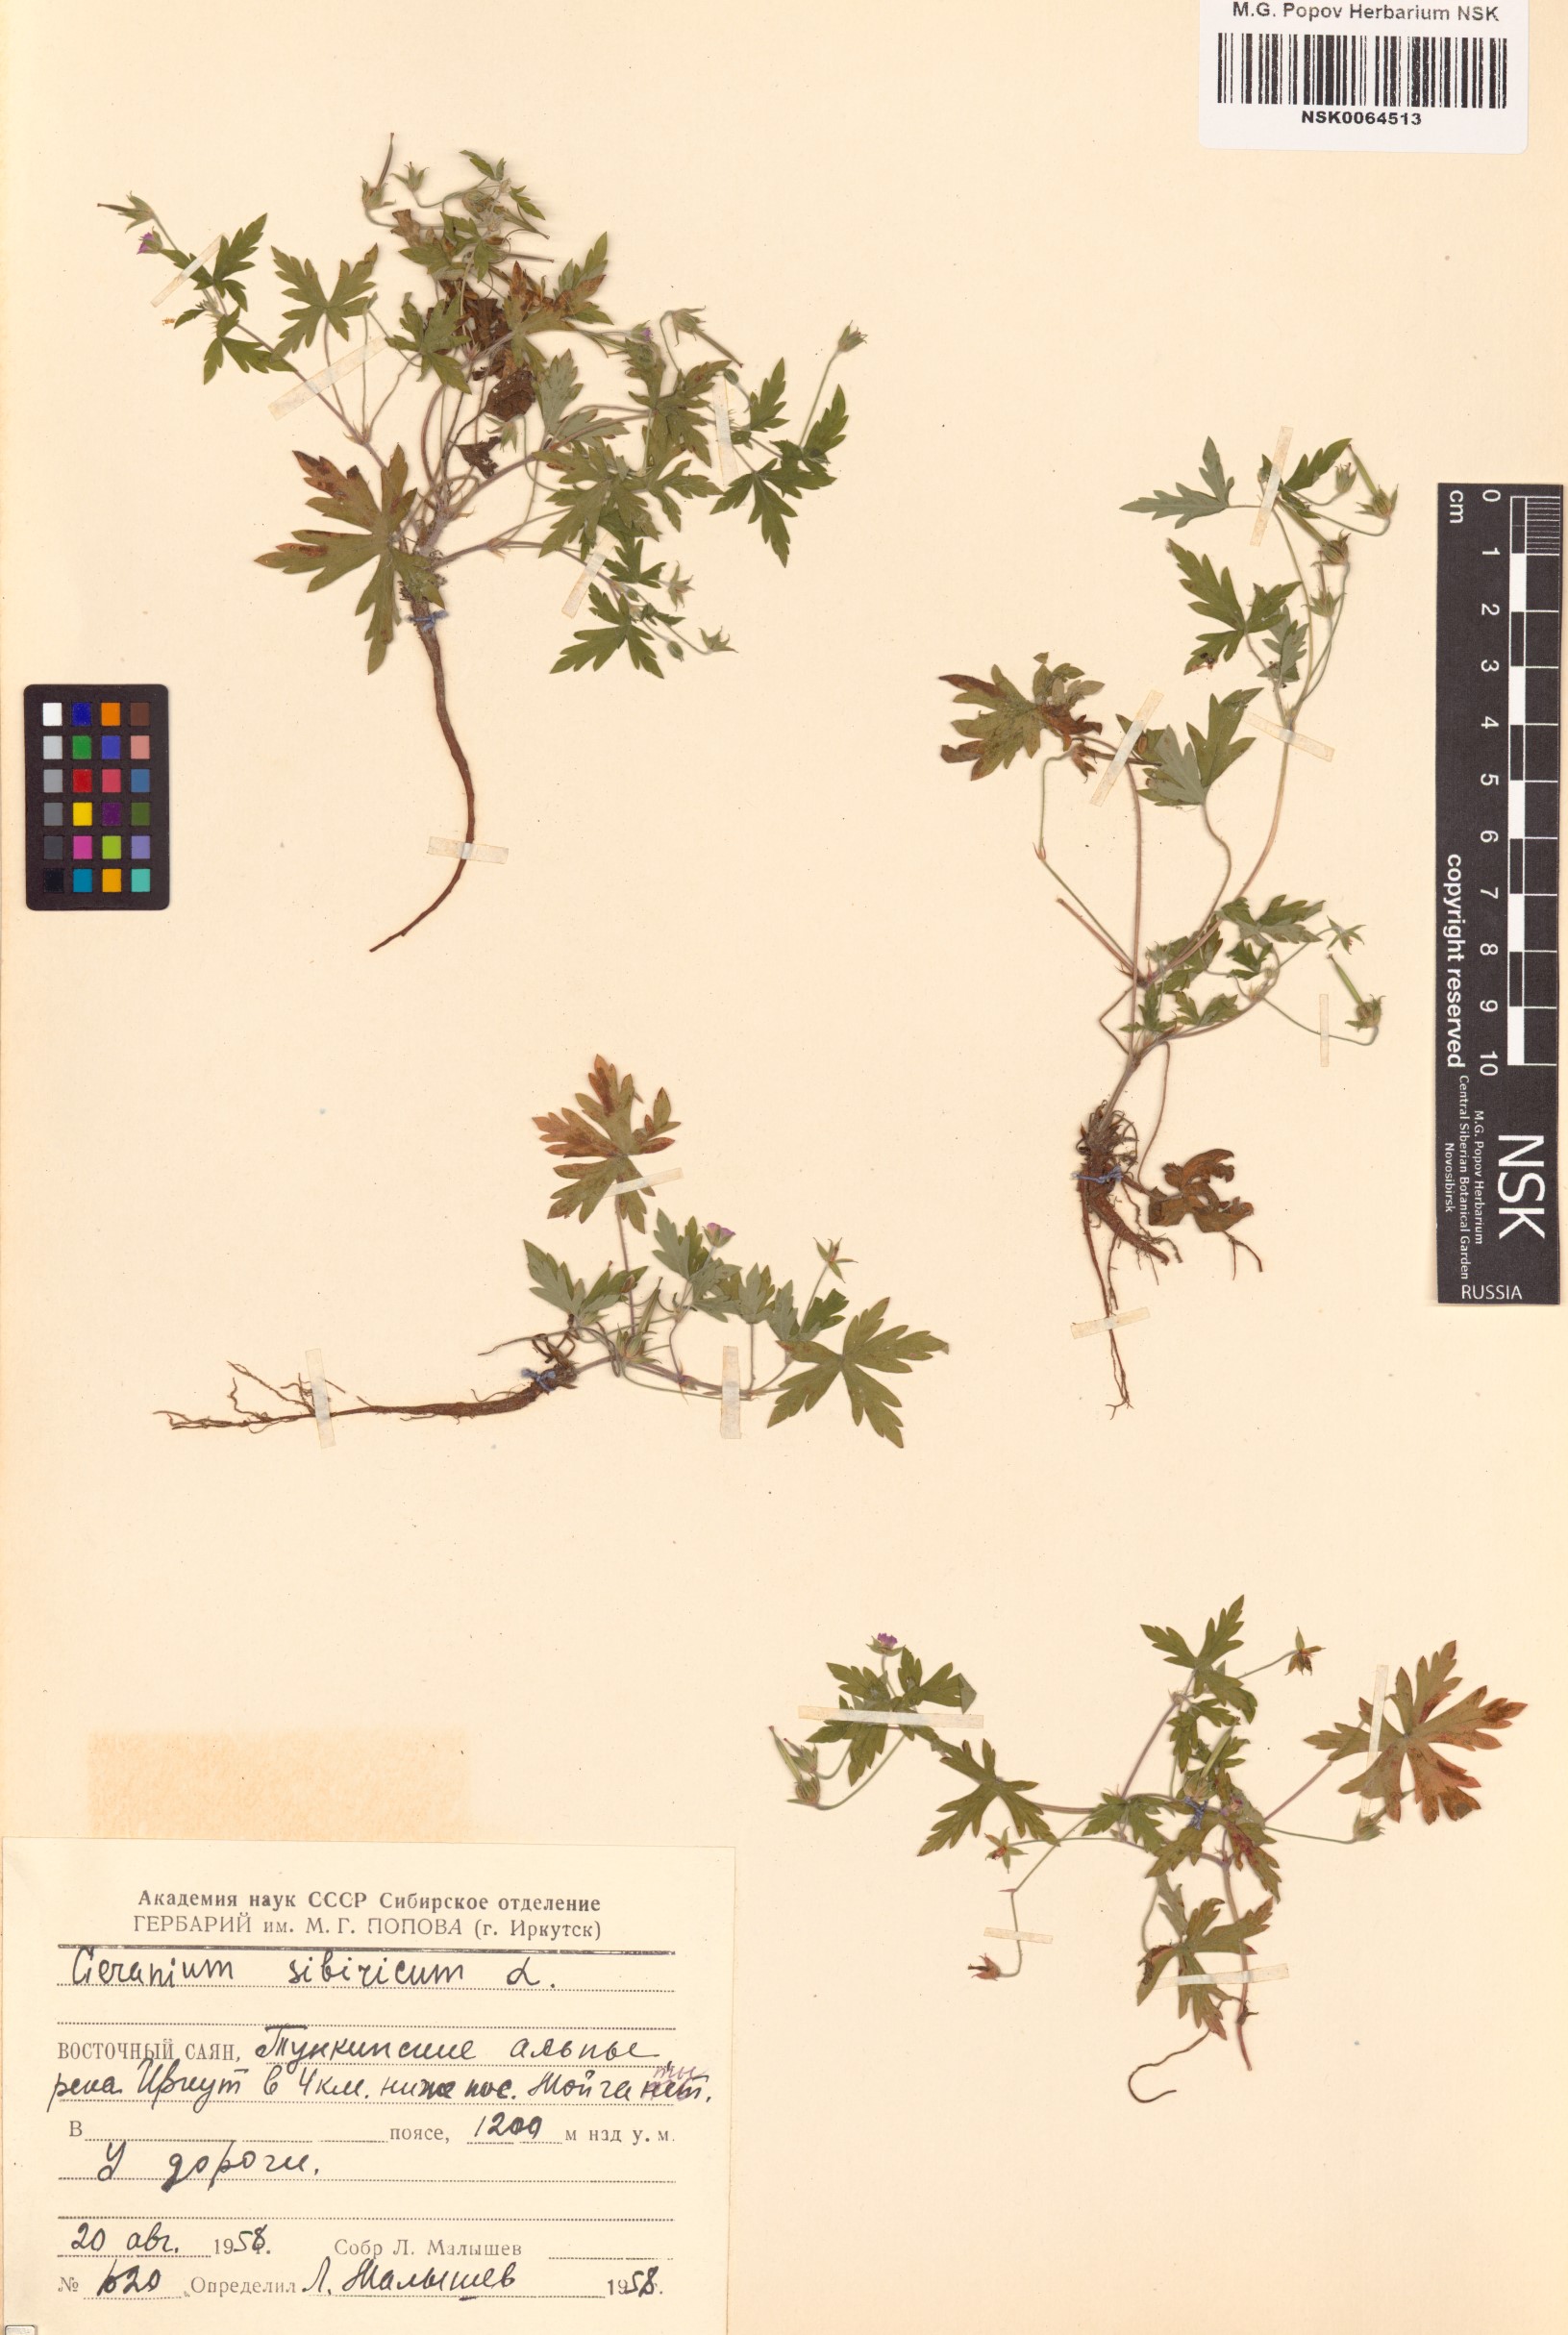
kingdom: Plantae
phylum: Tracheophyta
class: Magnoliopsida
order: Geraniales
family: Geraniaceae
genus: Geranium
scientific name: Geranium sibiricum
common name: Siberian crane's-bill
